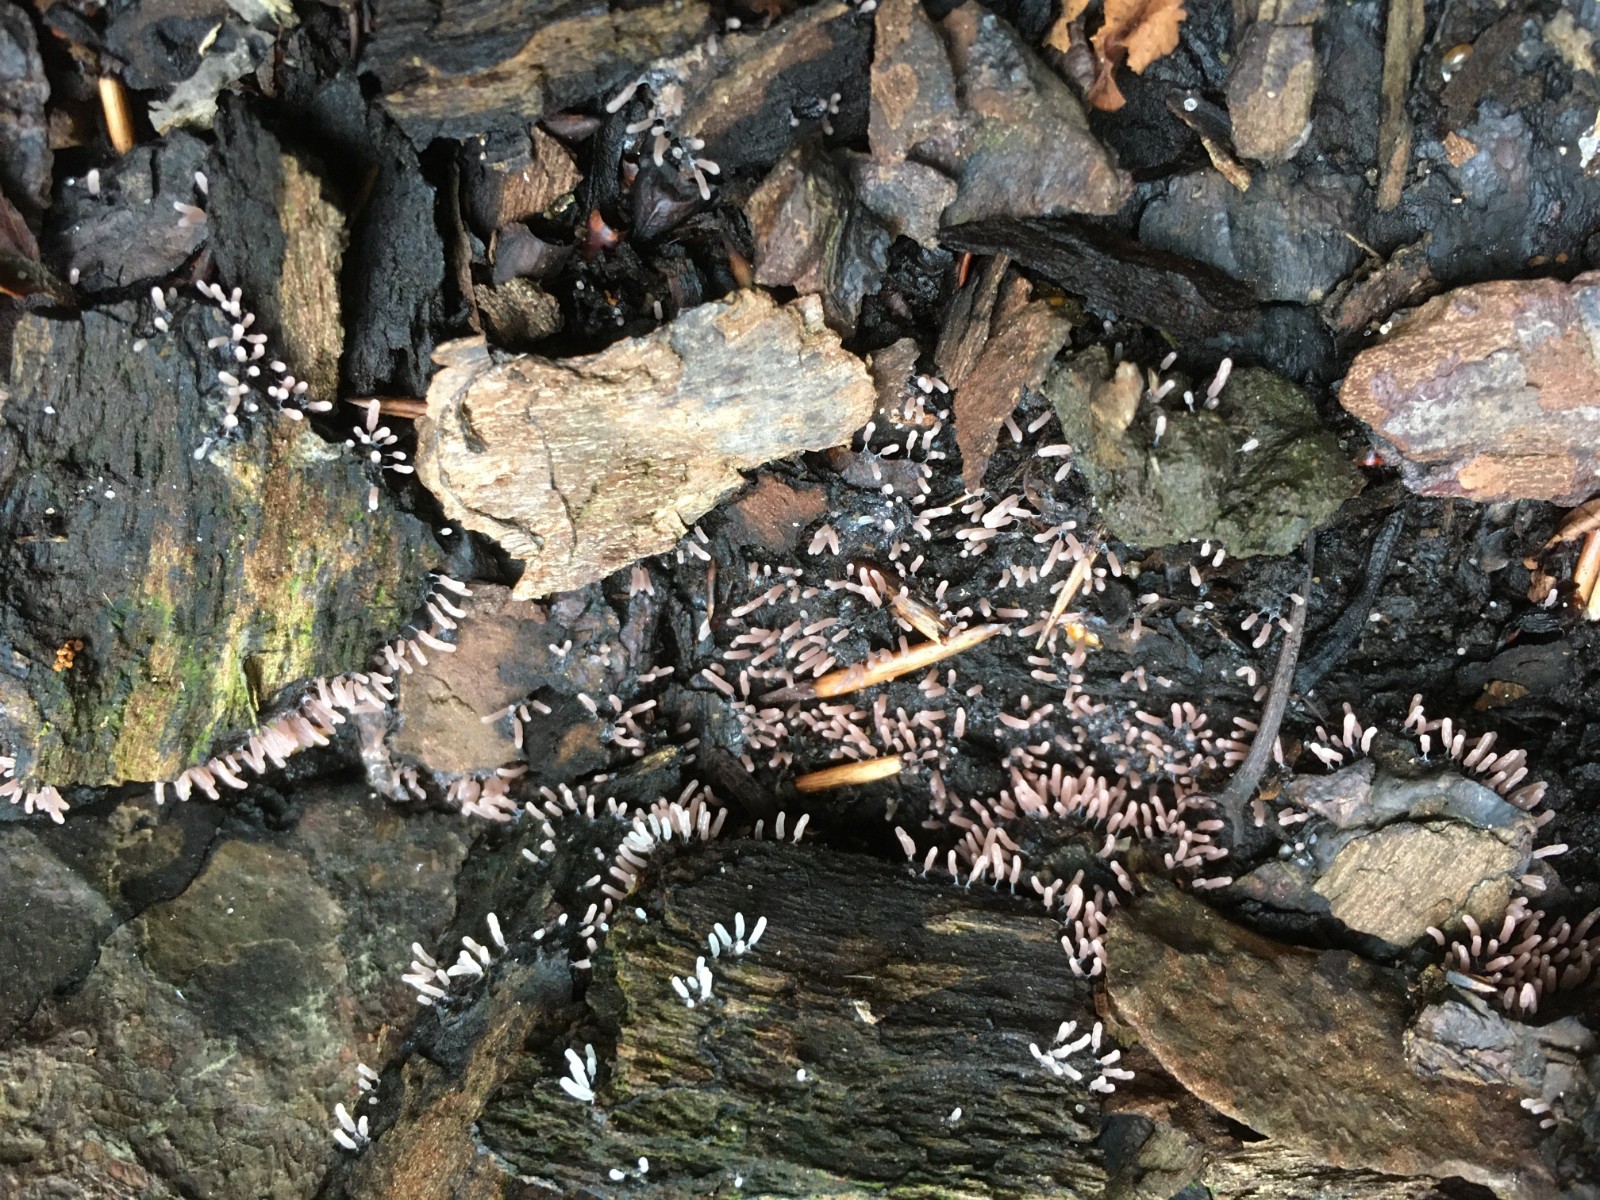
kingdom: Protozoa
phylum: Mycetozoa
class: Myxomycetes
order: Stemonitidales
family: Stemonitidaceae
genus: Stemonitopsis
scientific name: Stemonitopsis typhina
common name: skinnende støvkølle
